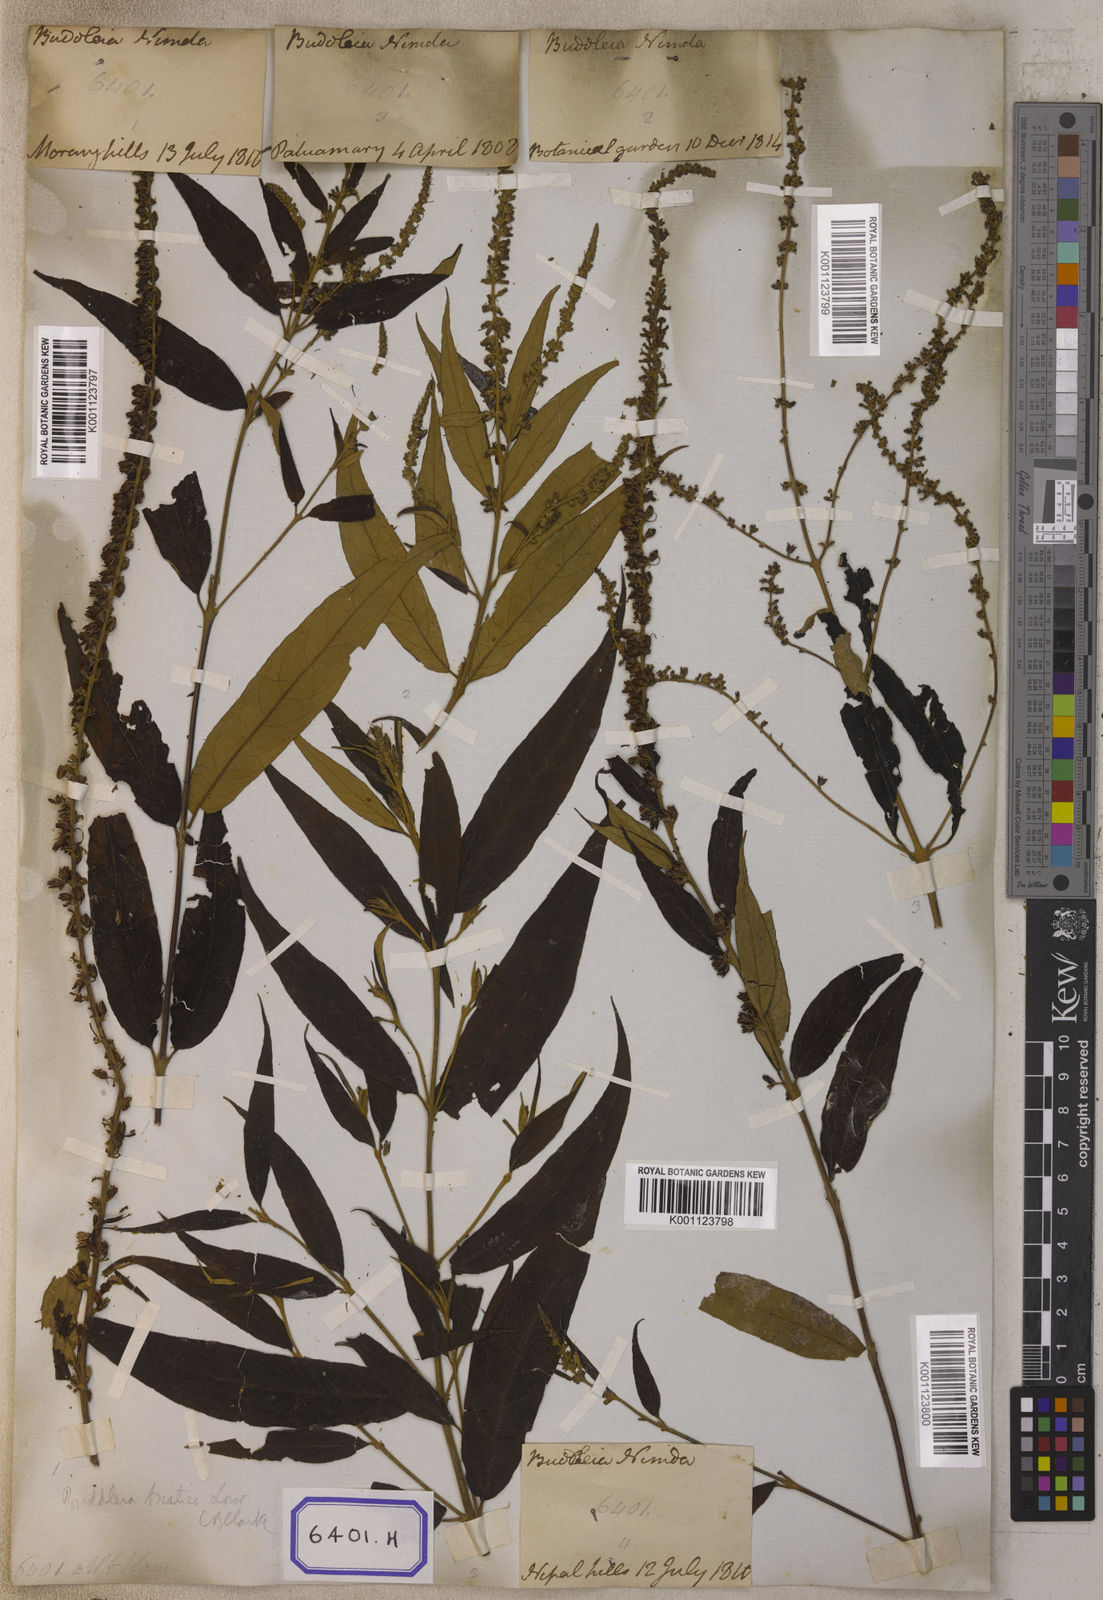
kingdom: Plantae
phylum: Tracheophyta
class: Magnoliopsida
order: Lamiales
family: Scrophulariaceae
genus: Buddleja
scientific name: Buddleja
